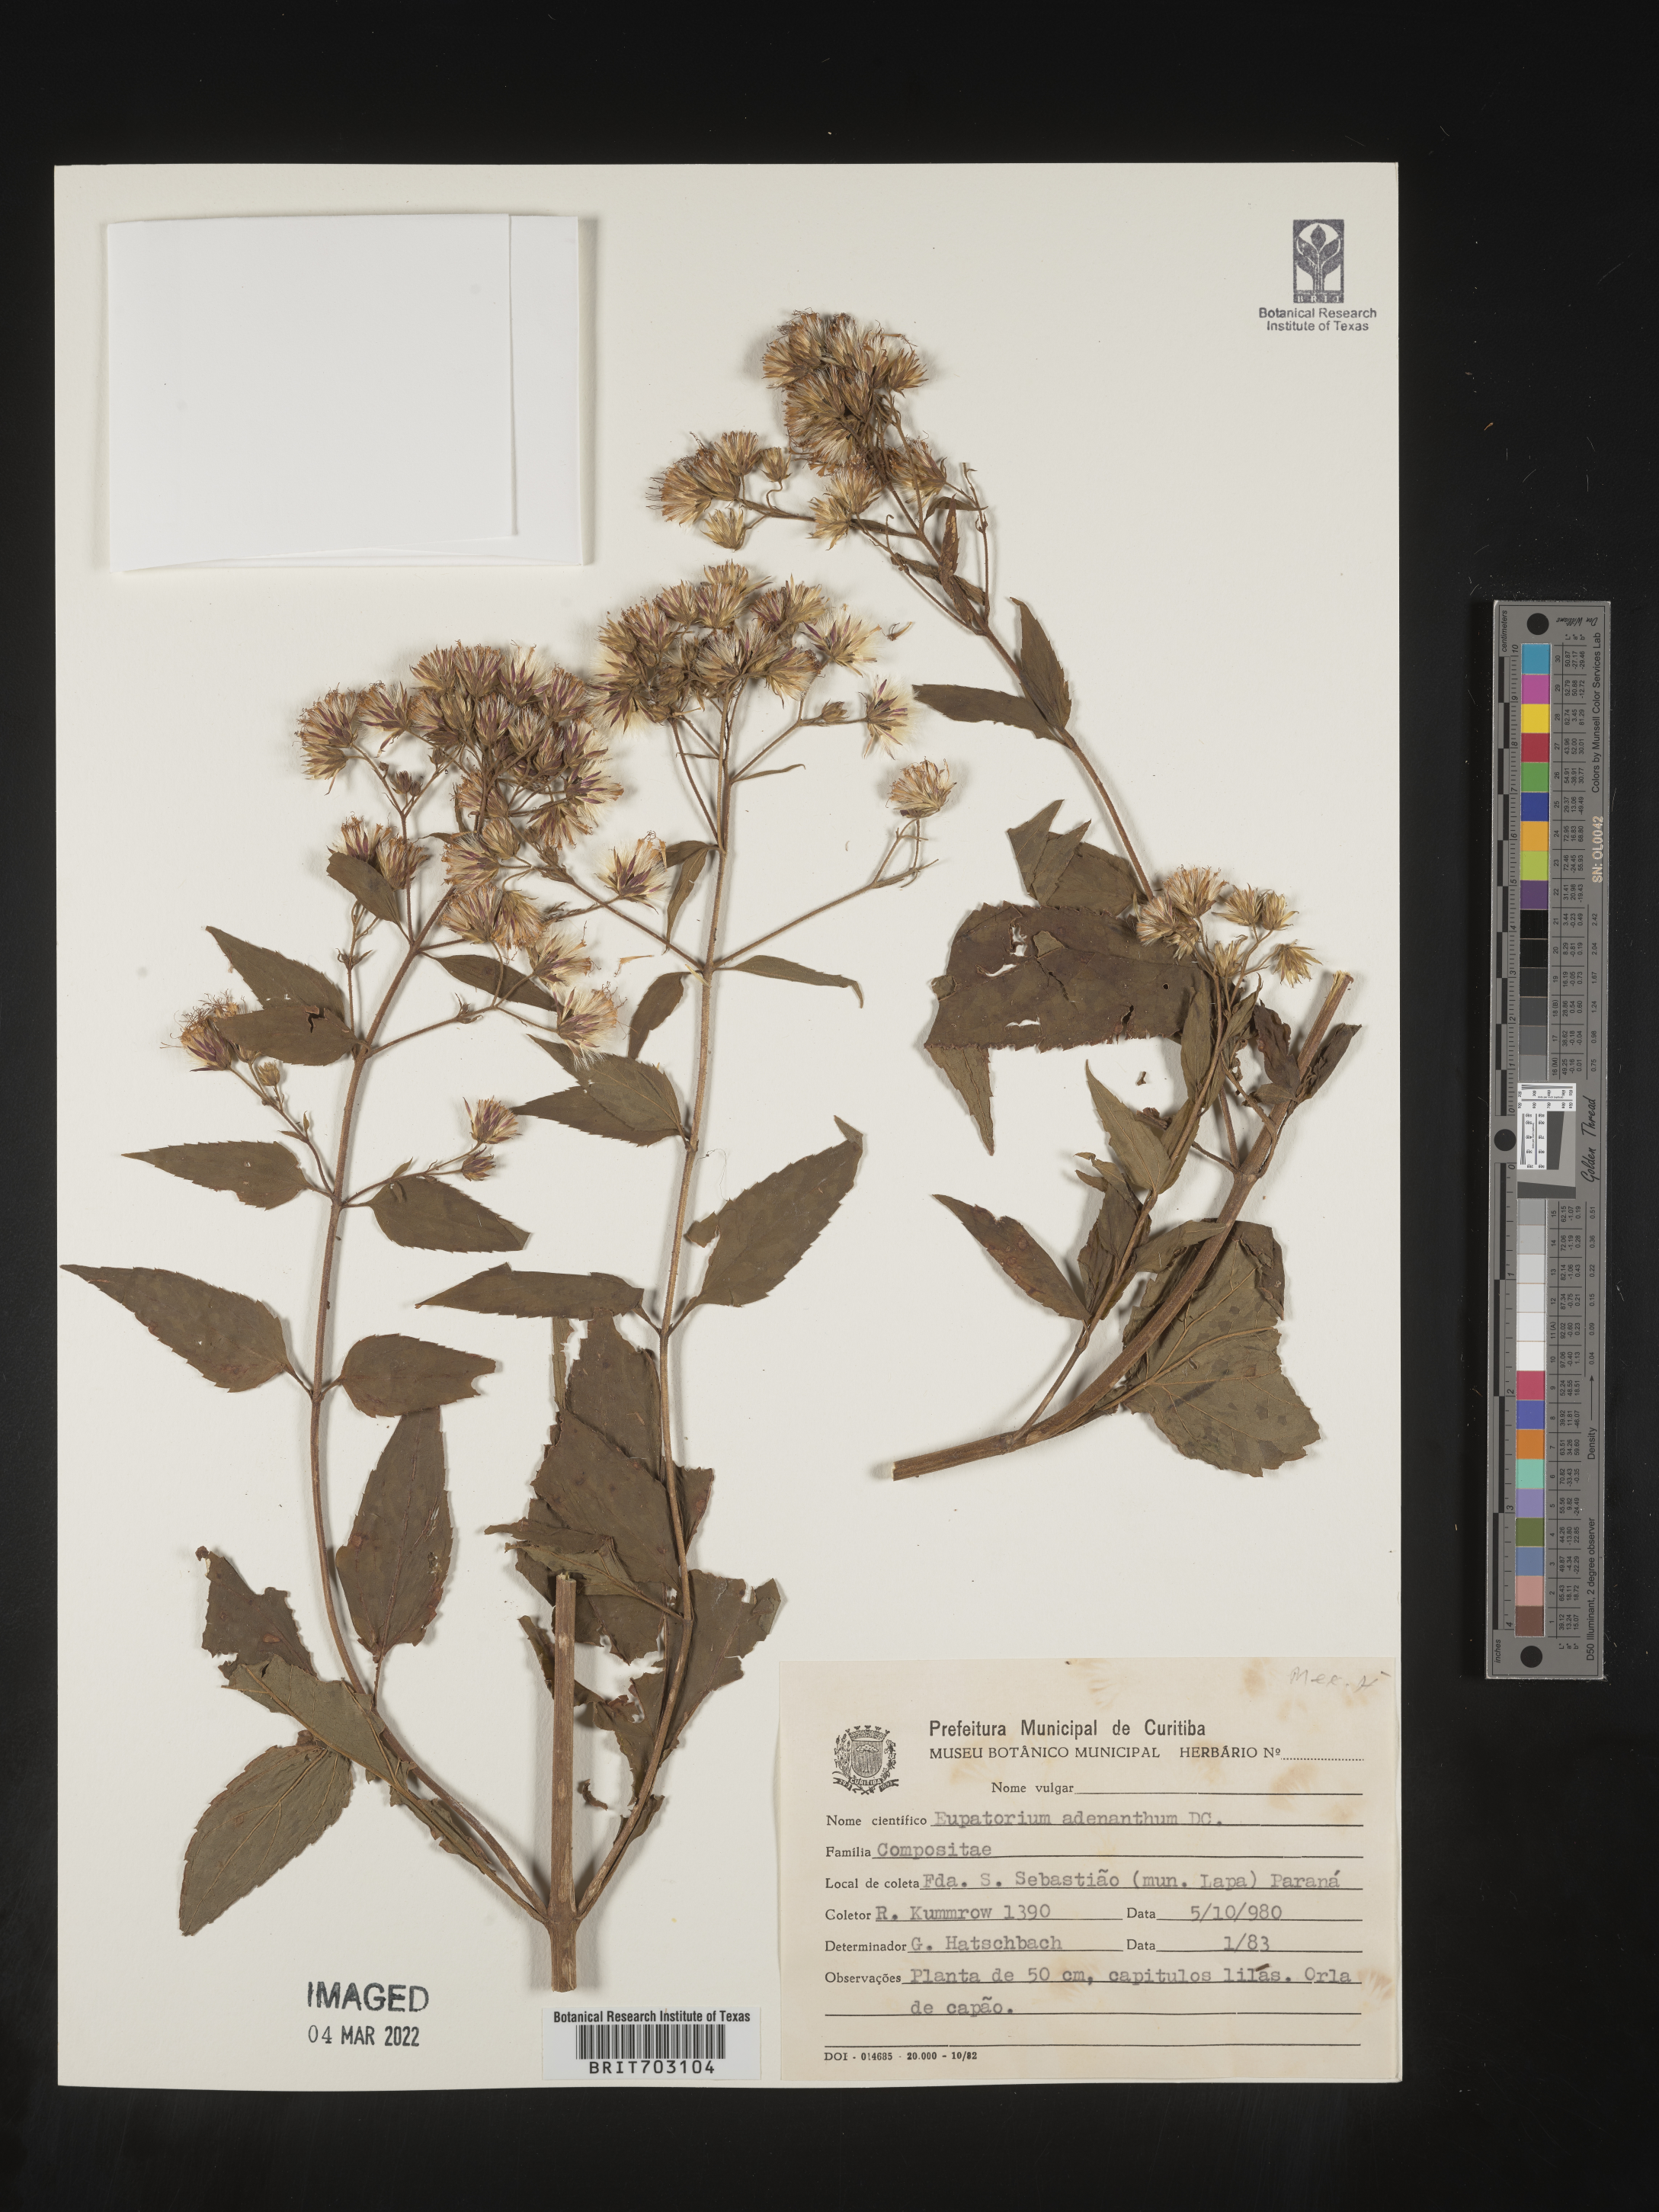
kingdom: Plantae
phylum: Tracheophyta
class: Magnoliopsida
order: Asterales
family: Asteraceae
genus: Eupatorium
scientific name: Eupatorium
